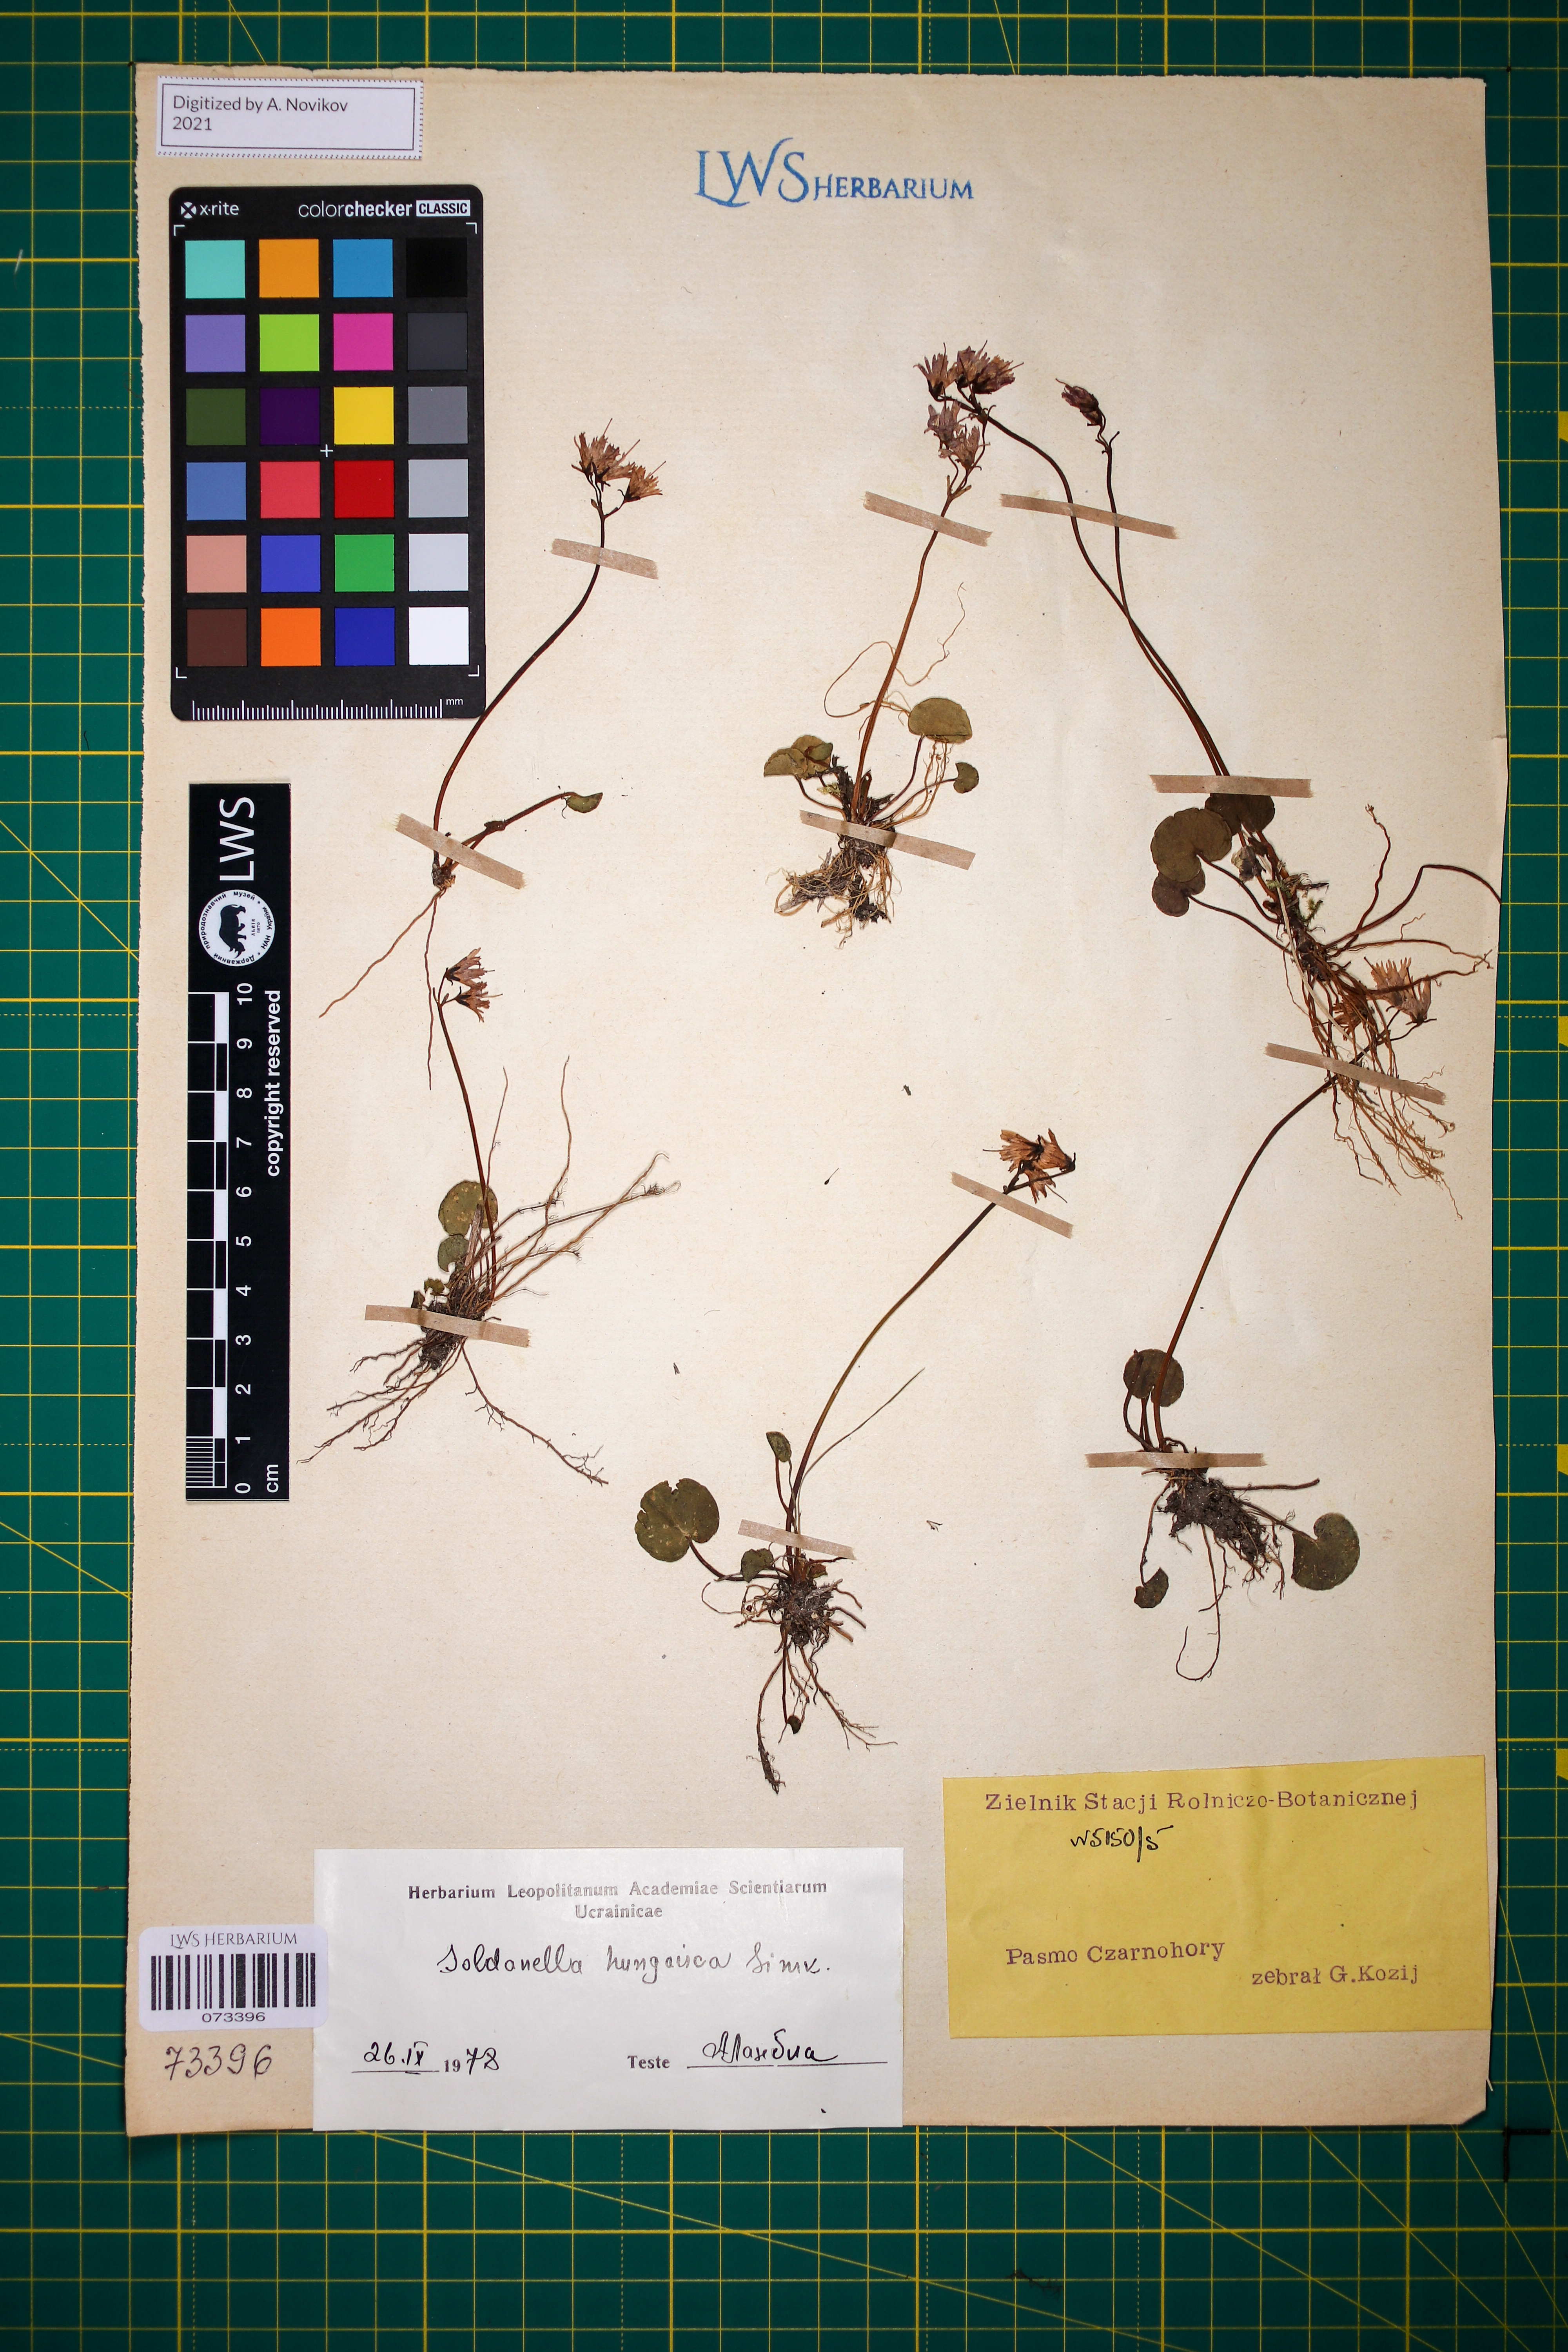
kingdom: Plantae
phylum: Tracheophyta
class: Magnoliopsida
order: Ericales
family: Primulaceae
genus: Soldanella
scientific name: Soldanella hungarica
